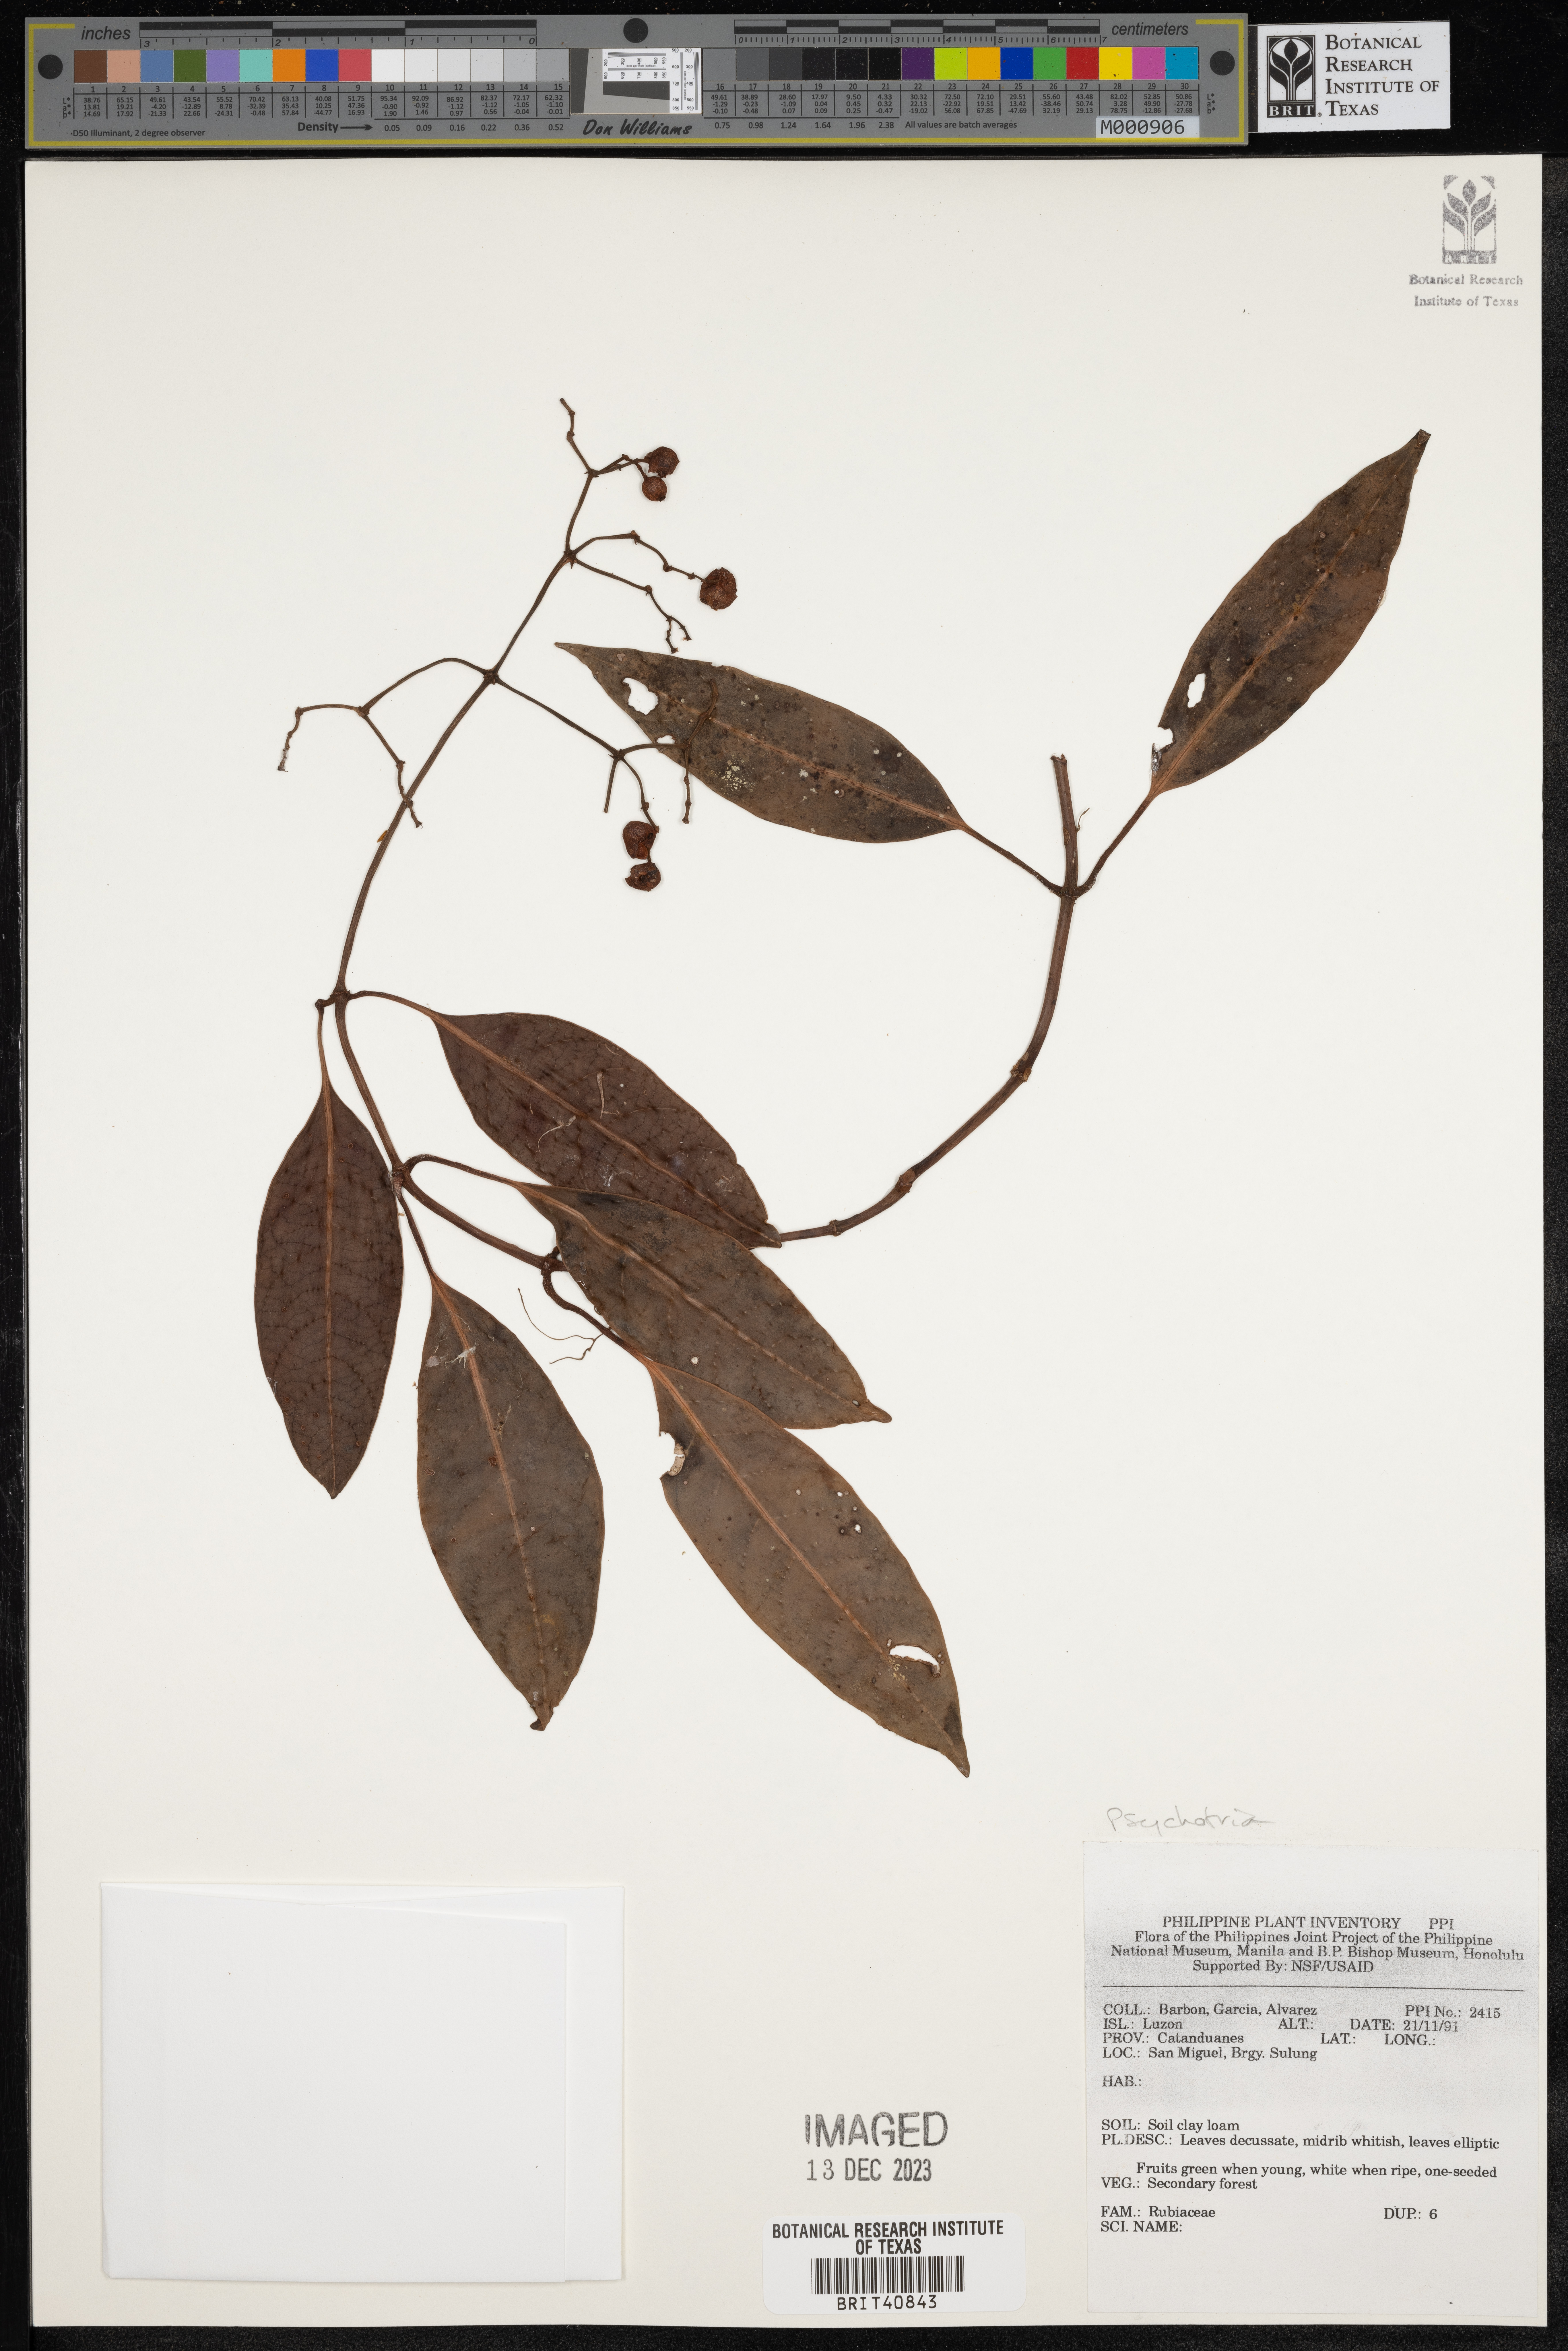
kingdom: Plantae
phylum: Tracheophyta
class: Magnoliopsida
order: Gentianales
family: Rubiaceae
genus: Psychotria
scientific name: Psychotria
